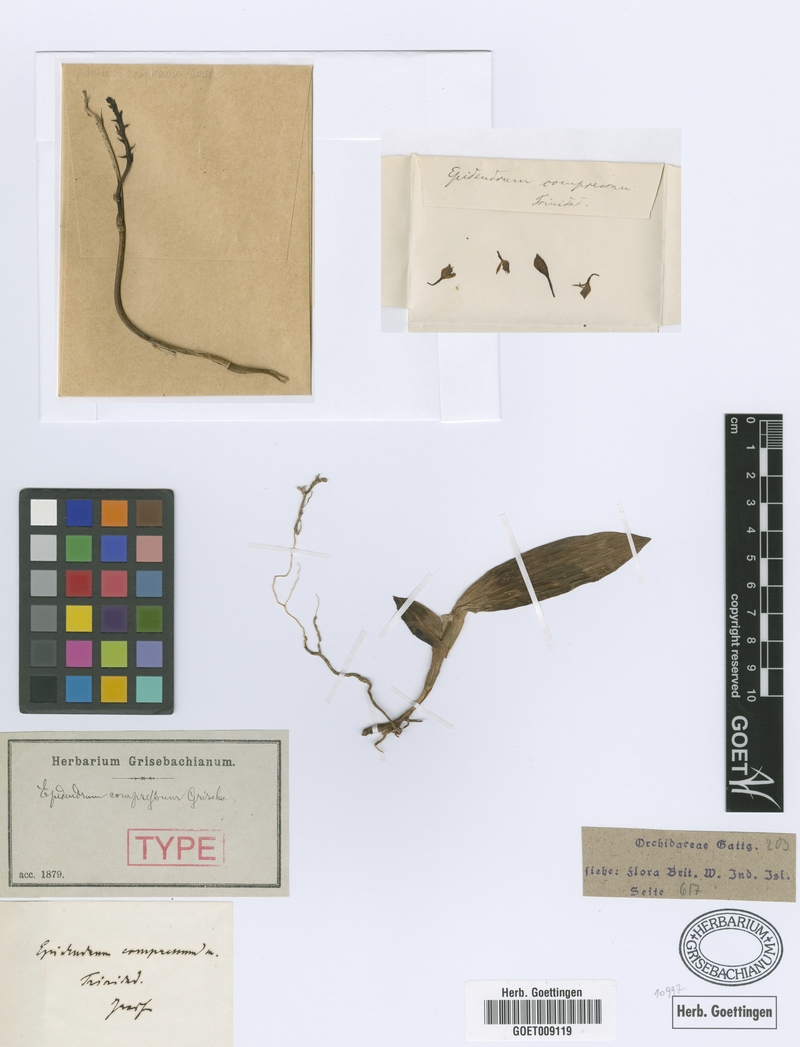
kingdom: Plantae
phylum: Tracheophyta
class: Liliopsida
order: Asparagales
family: Orchidaceae
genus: Epidendrum
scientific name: Epidendrum compressum
